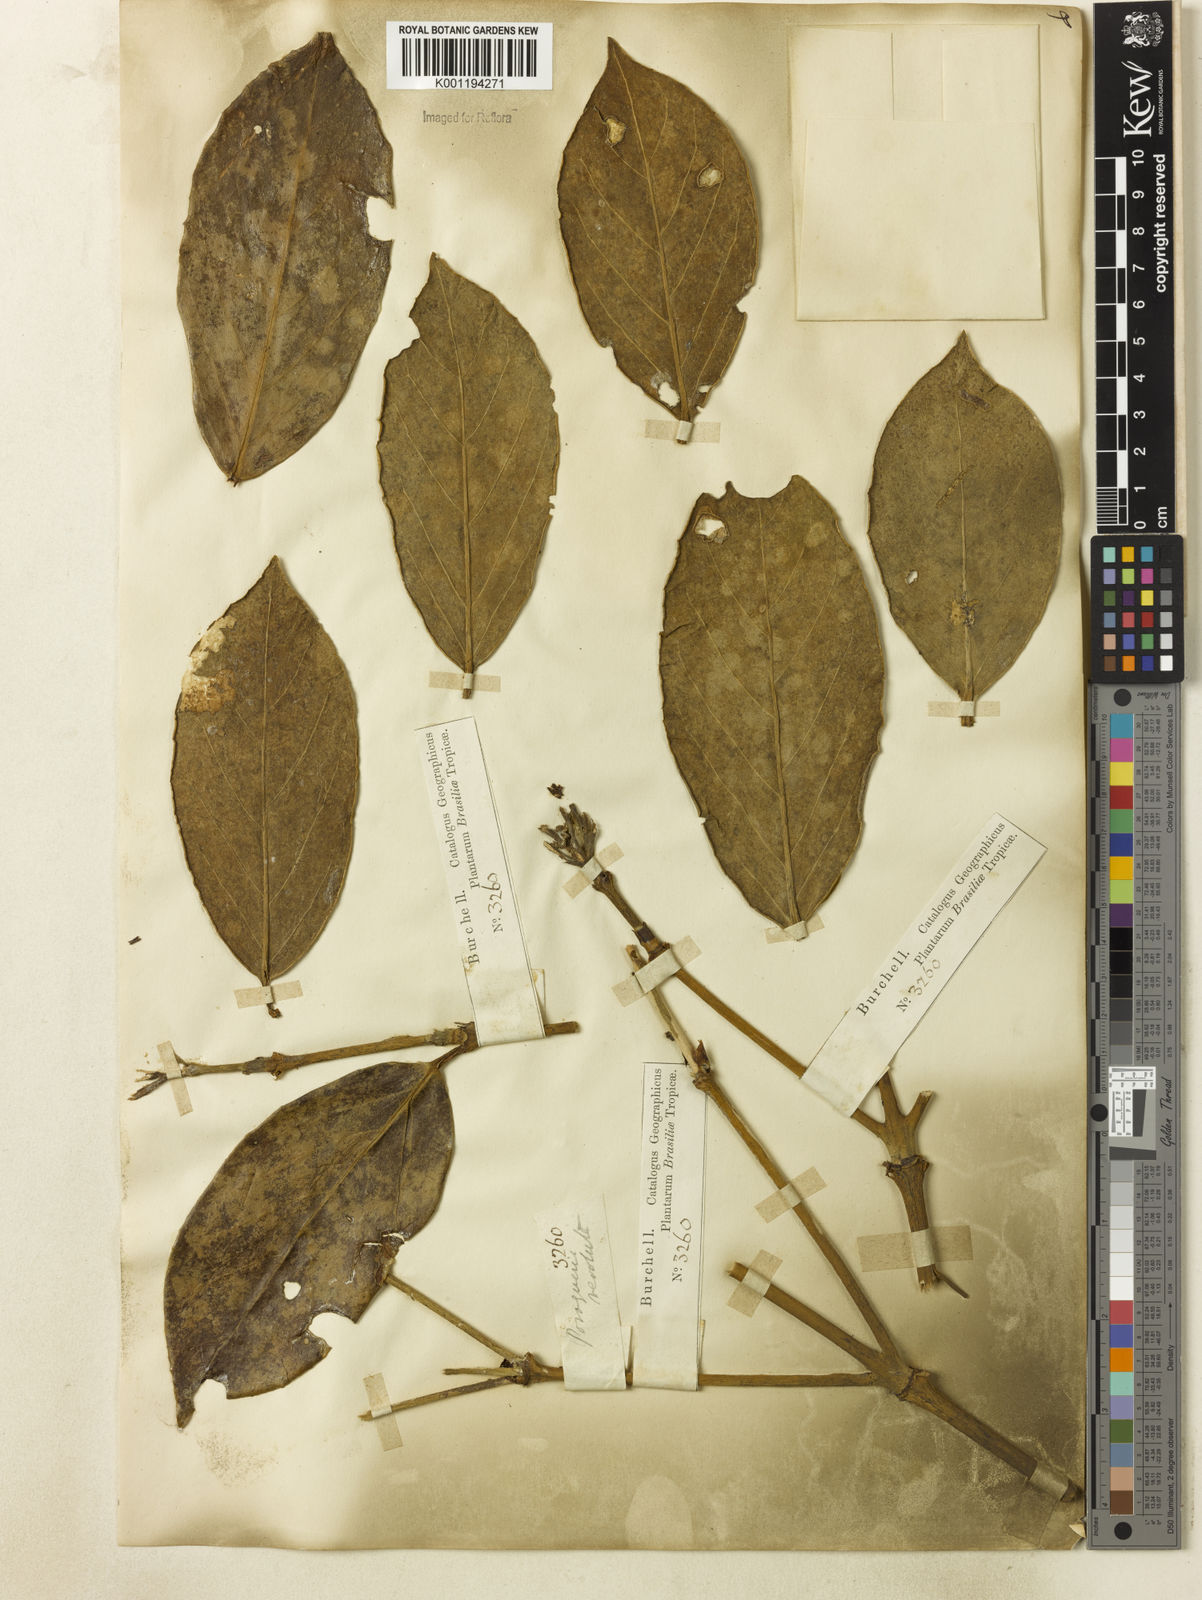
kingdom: Plantae
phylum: Tracheophyta
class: Magnoliopsida
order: Gentianales
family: Rubiaceae
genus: Posoqueria
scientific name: Posoqueria latifolia
